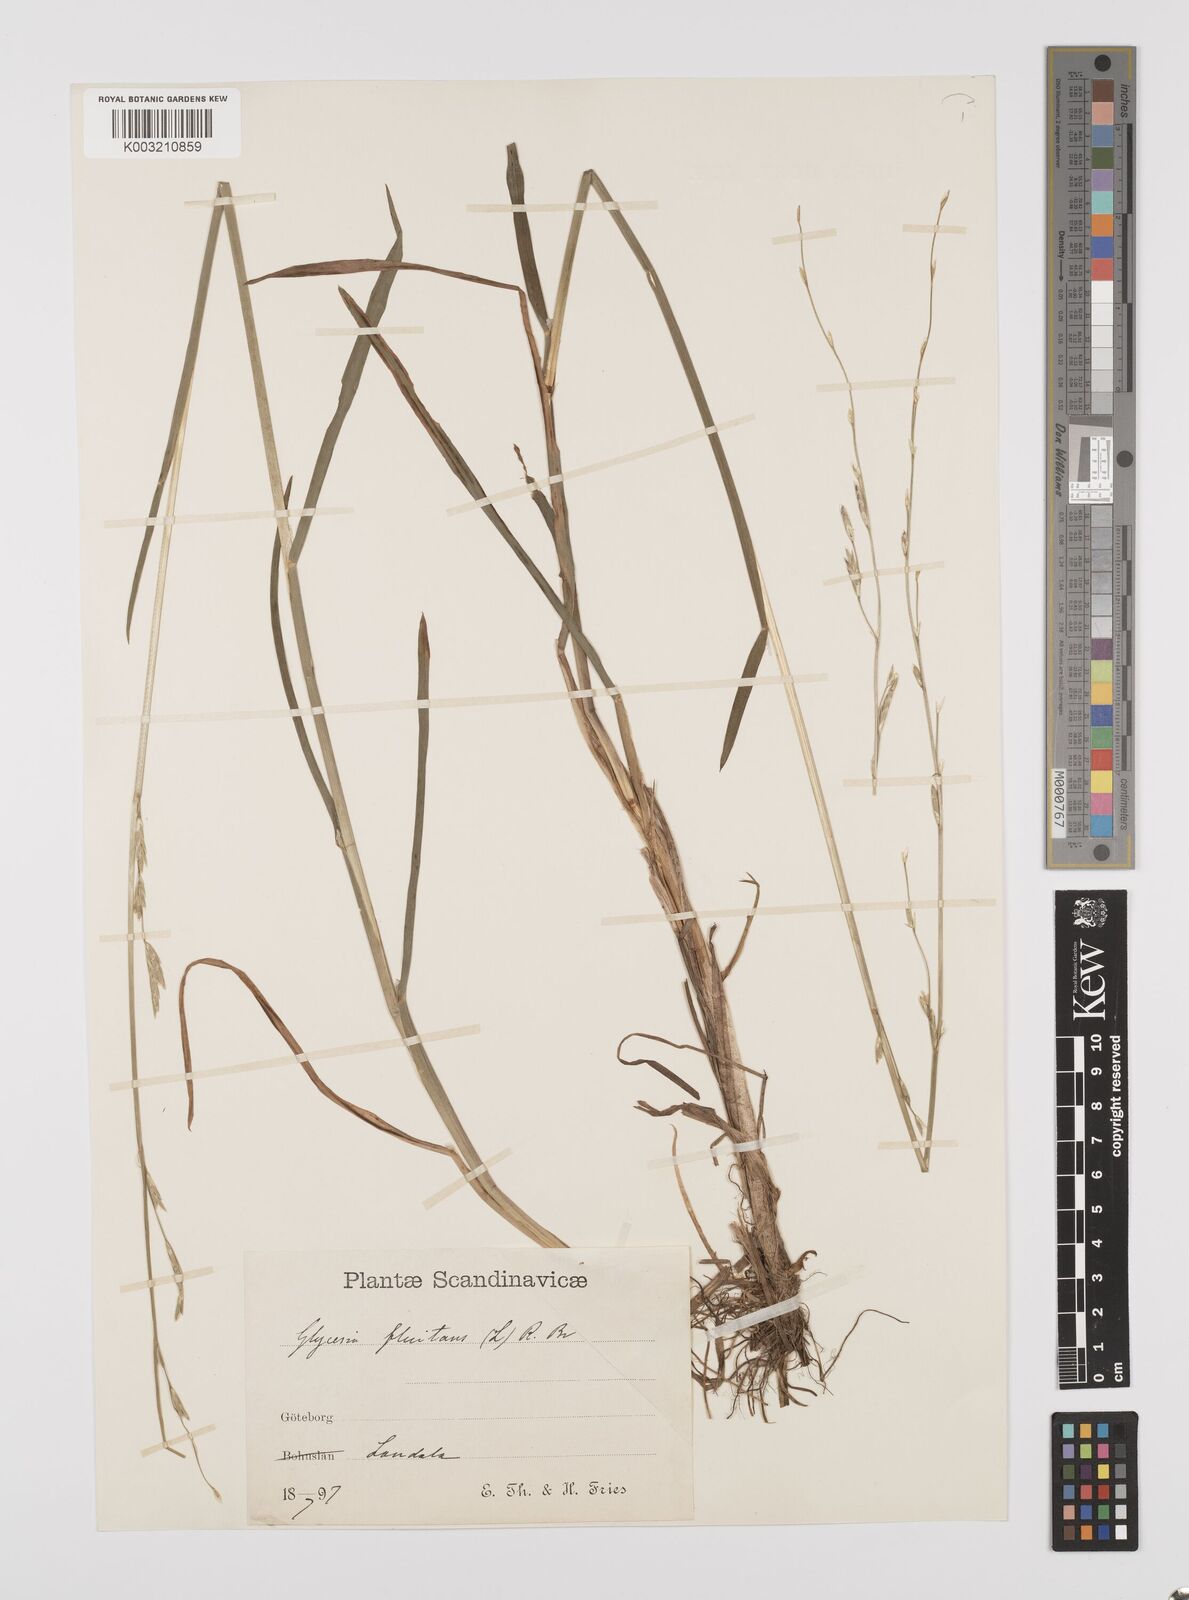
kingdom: Plantae
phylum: Tracheophyta
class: Liliopsida
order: Poales
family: Poaceae
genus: Glyceria
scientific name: Glyceria fluitans
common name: Floating sweet-grass
